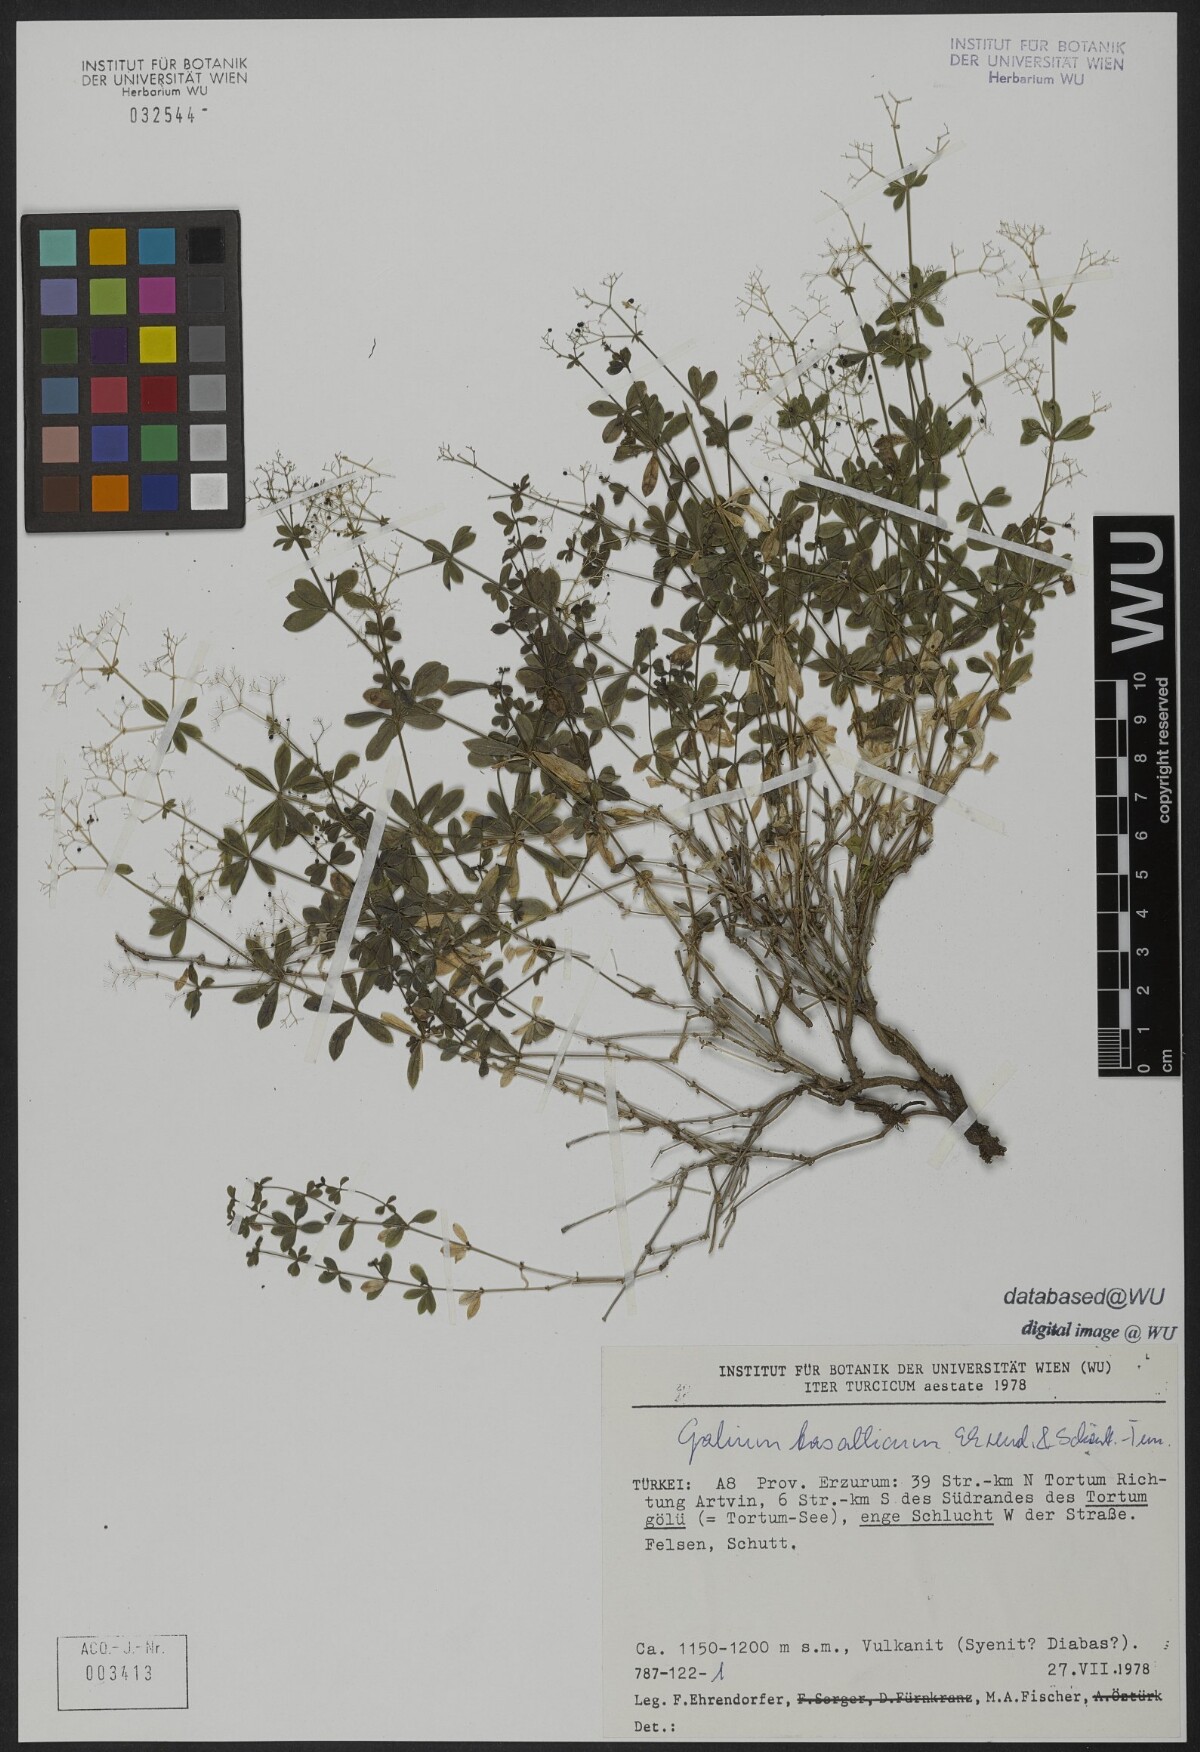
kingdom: Plantae
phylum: Tracheophyta
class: Magnoliopsida
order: Gentianales
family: Rubiaceae
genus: Galium
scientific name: Galium basalticum
